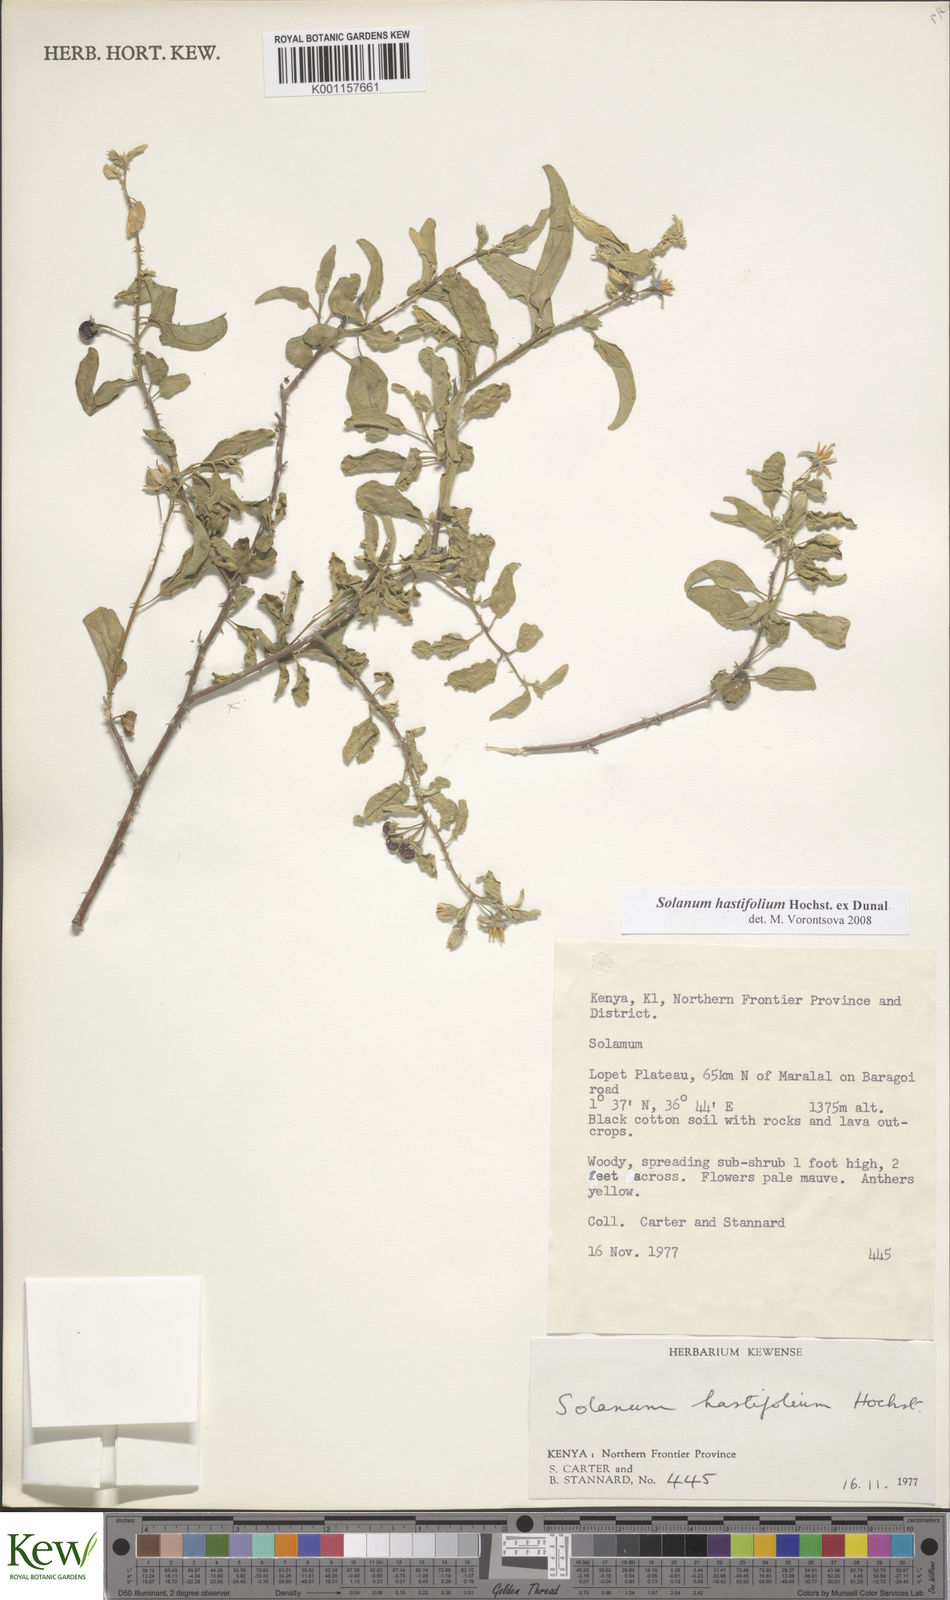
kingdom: Plantae
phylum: Tracheophyta
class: Magnoliopsida
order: Solanales
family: Solanaceae
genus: Solanum
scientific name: Solanum hastifolium
